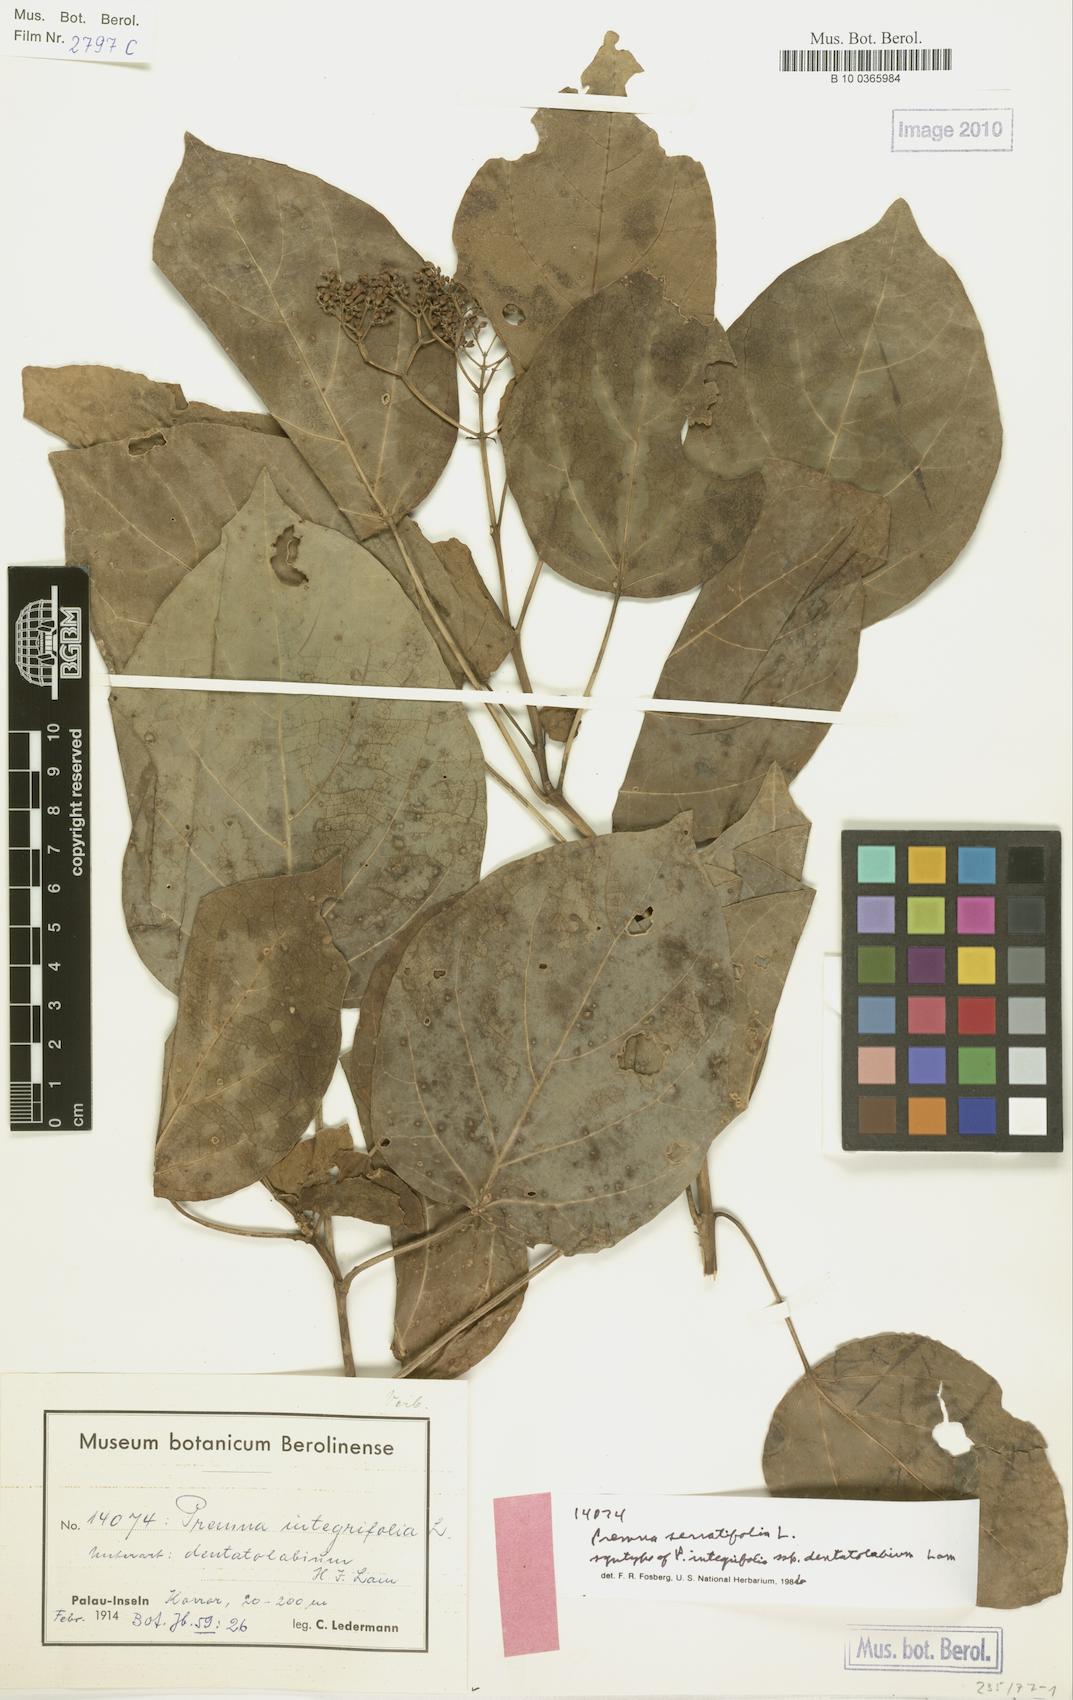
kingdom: Plantae
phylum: Tracheophyta
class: Magnoliopsida
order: Lamiales
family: Lamiaceae
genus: Premna
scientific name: Premna serratifolia
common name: Bastard guelder
